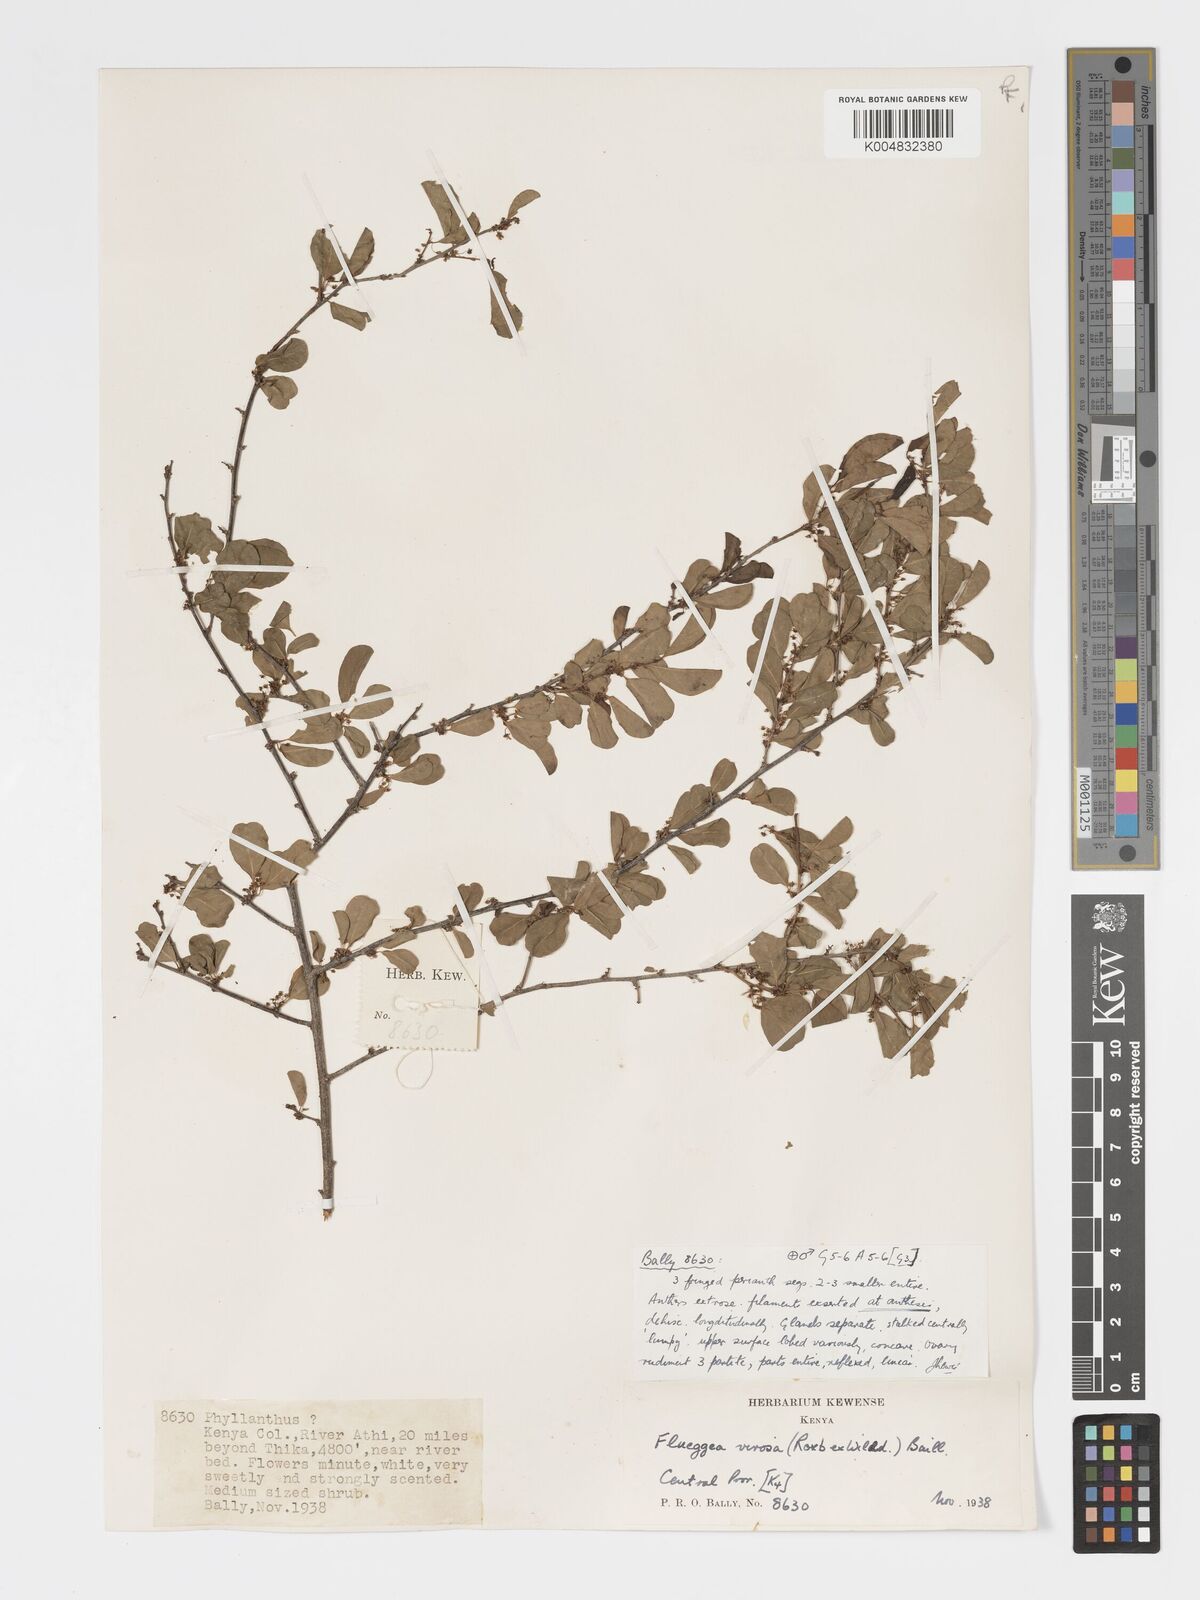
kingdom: Plantae
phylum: Tracheophyta
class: Magnoliopsida
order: Malpighiales
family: Phyllanthaceae
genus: Flueggea
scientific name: Flueggea
